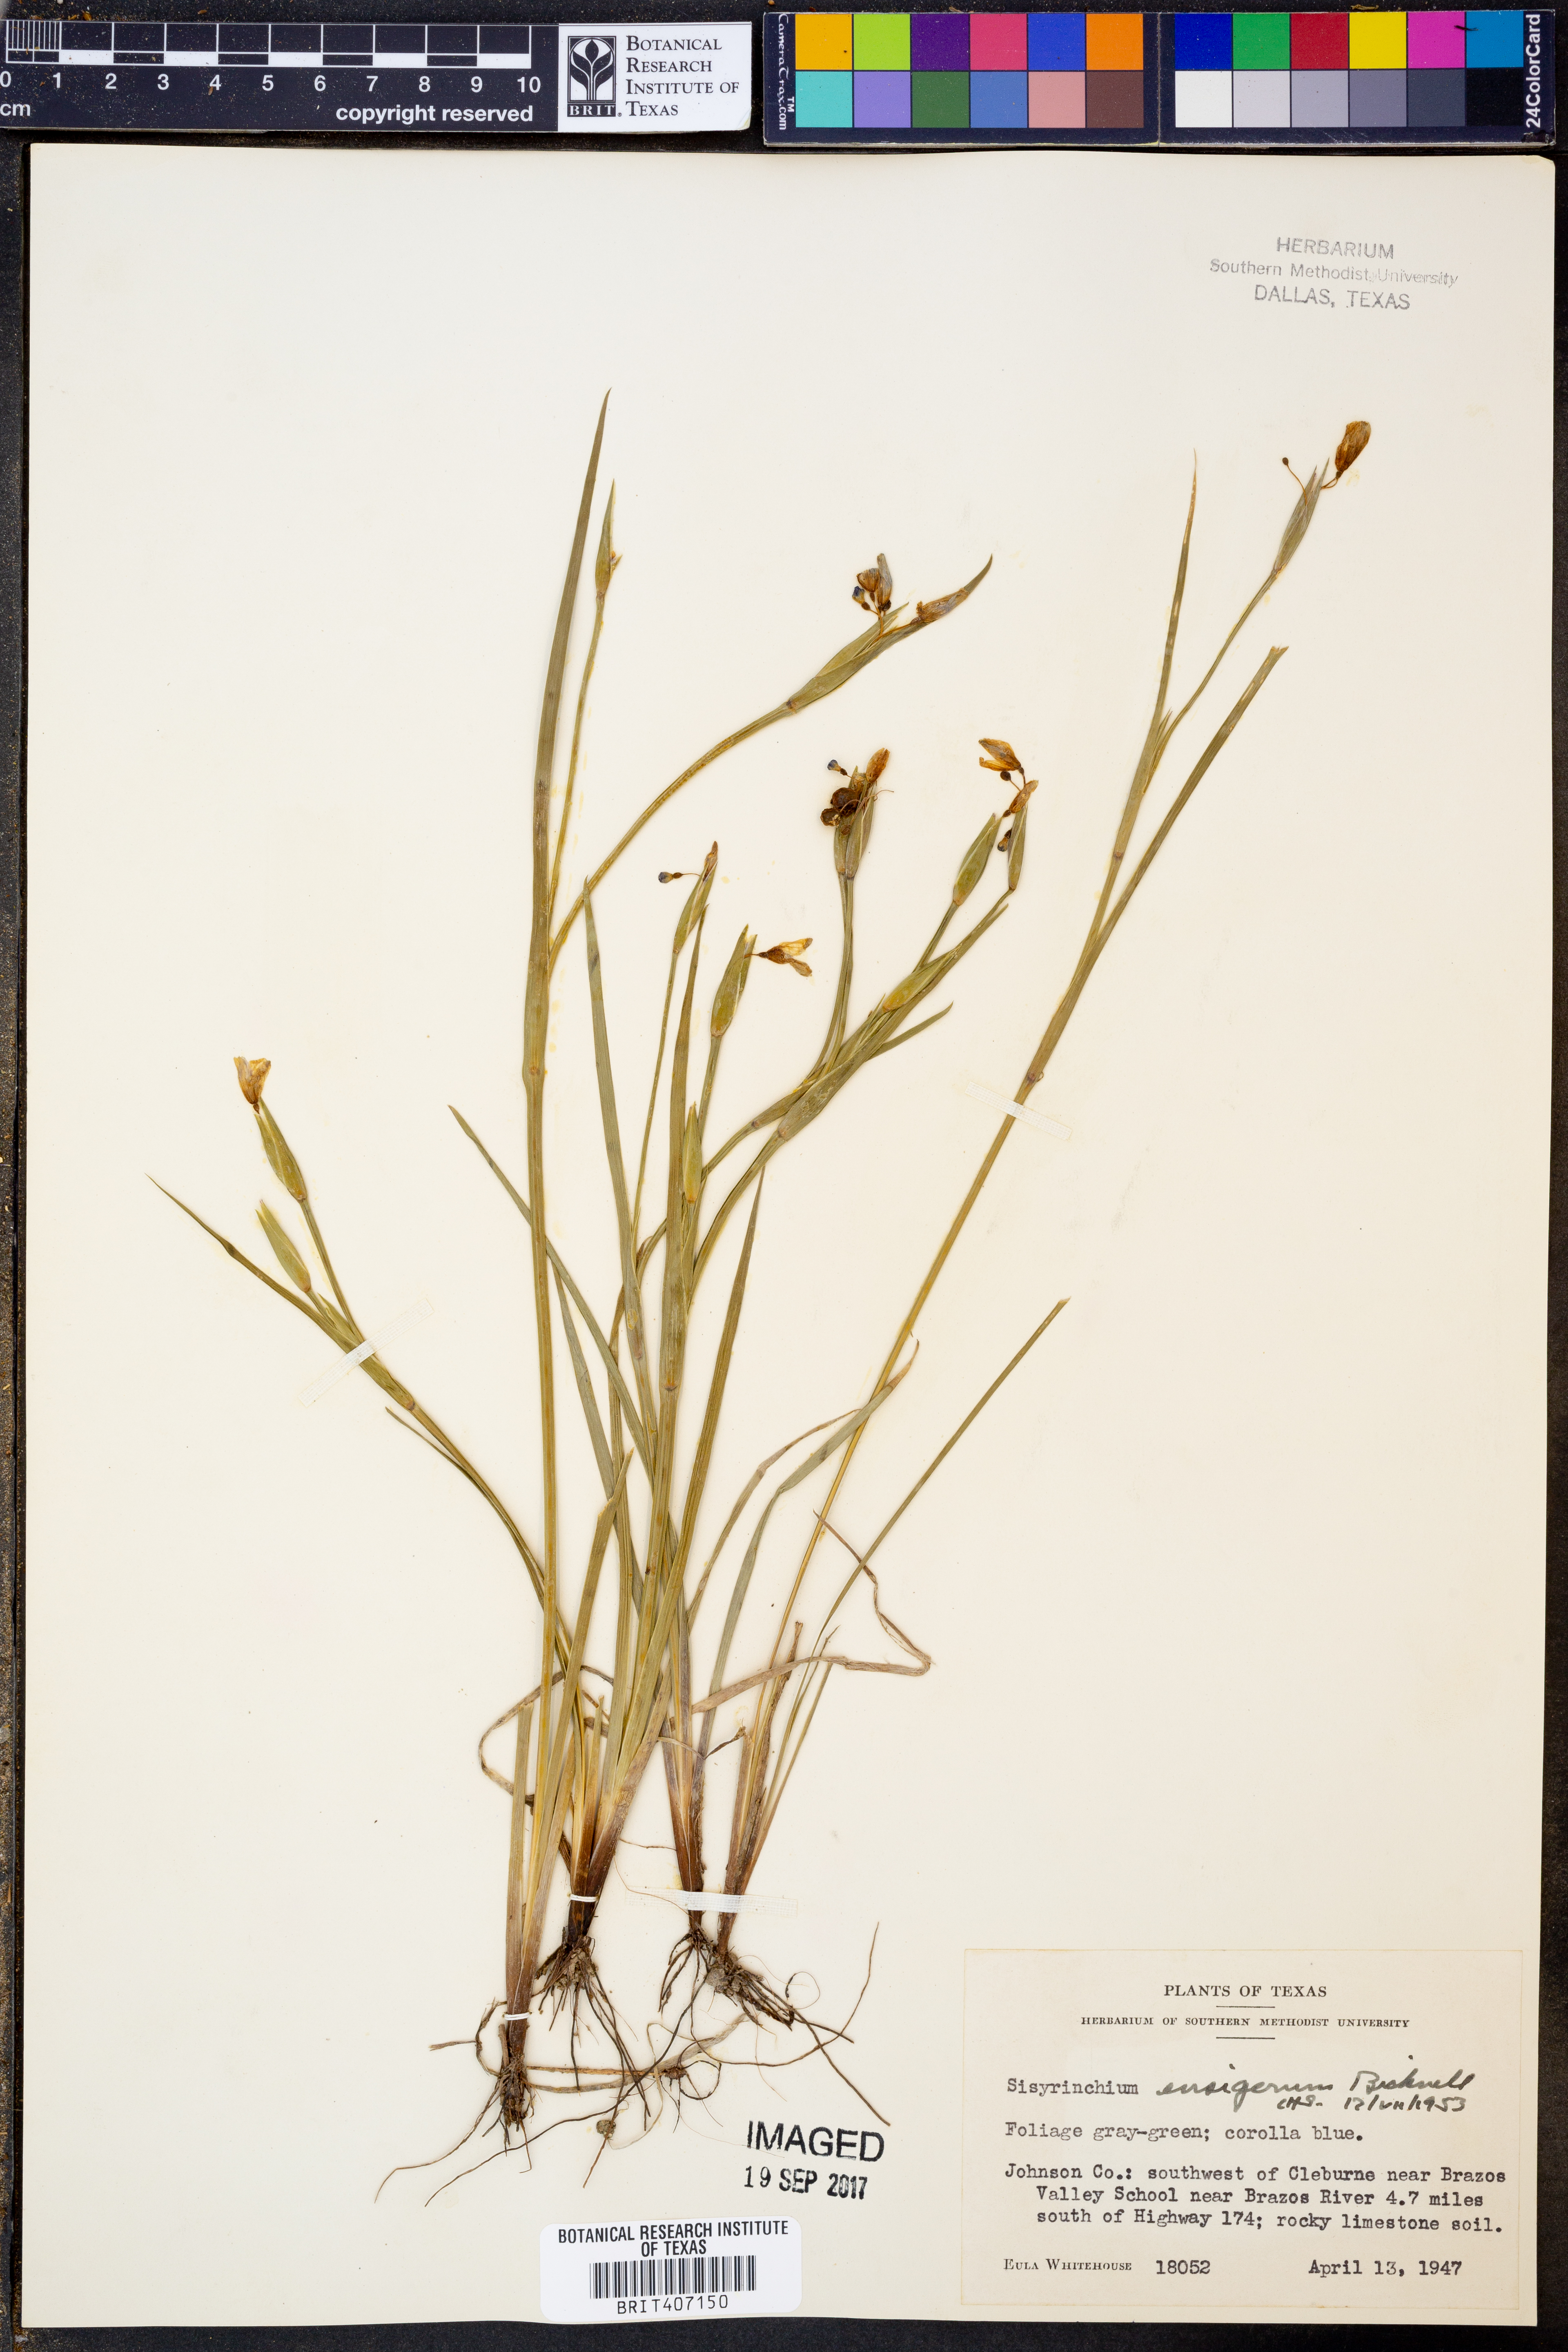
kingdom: Plantae
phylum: Tracheophyta
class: Liliopsida
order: Asparagales
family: Iridaceae
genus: Sisyrinchium
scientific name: Sisyrinchium ensigerum
